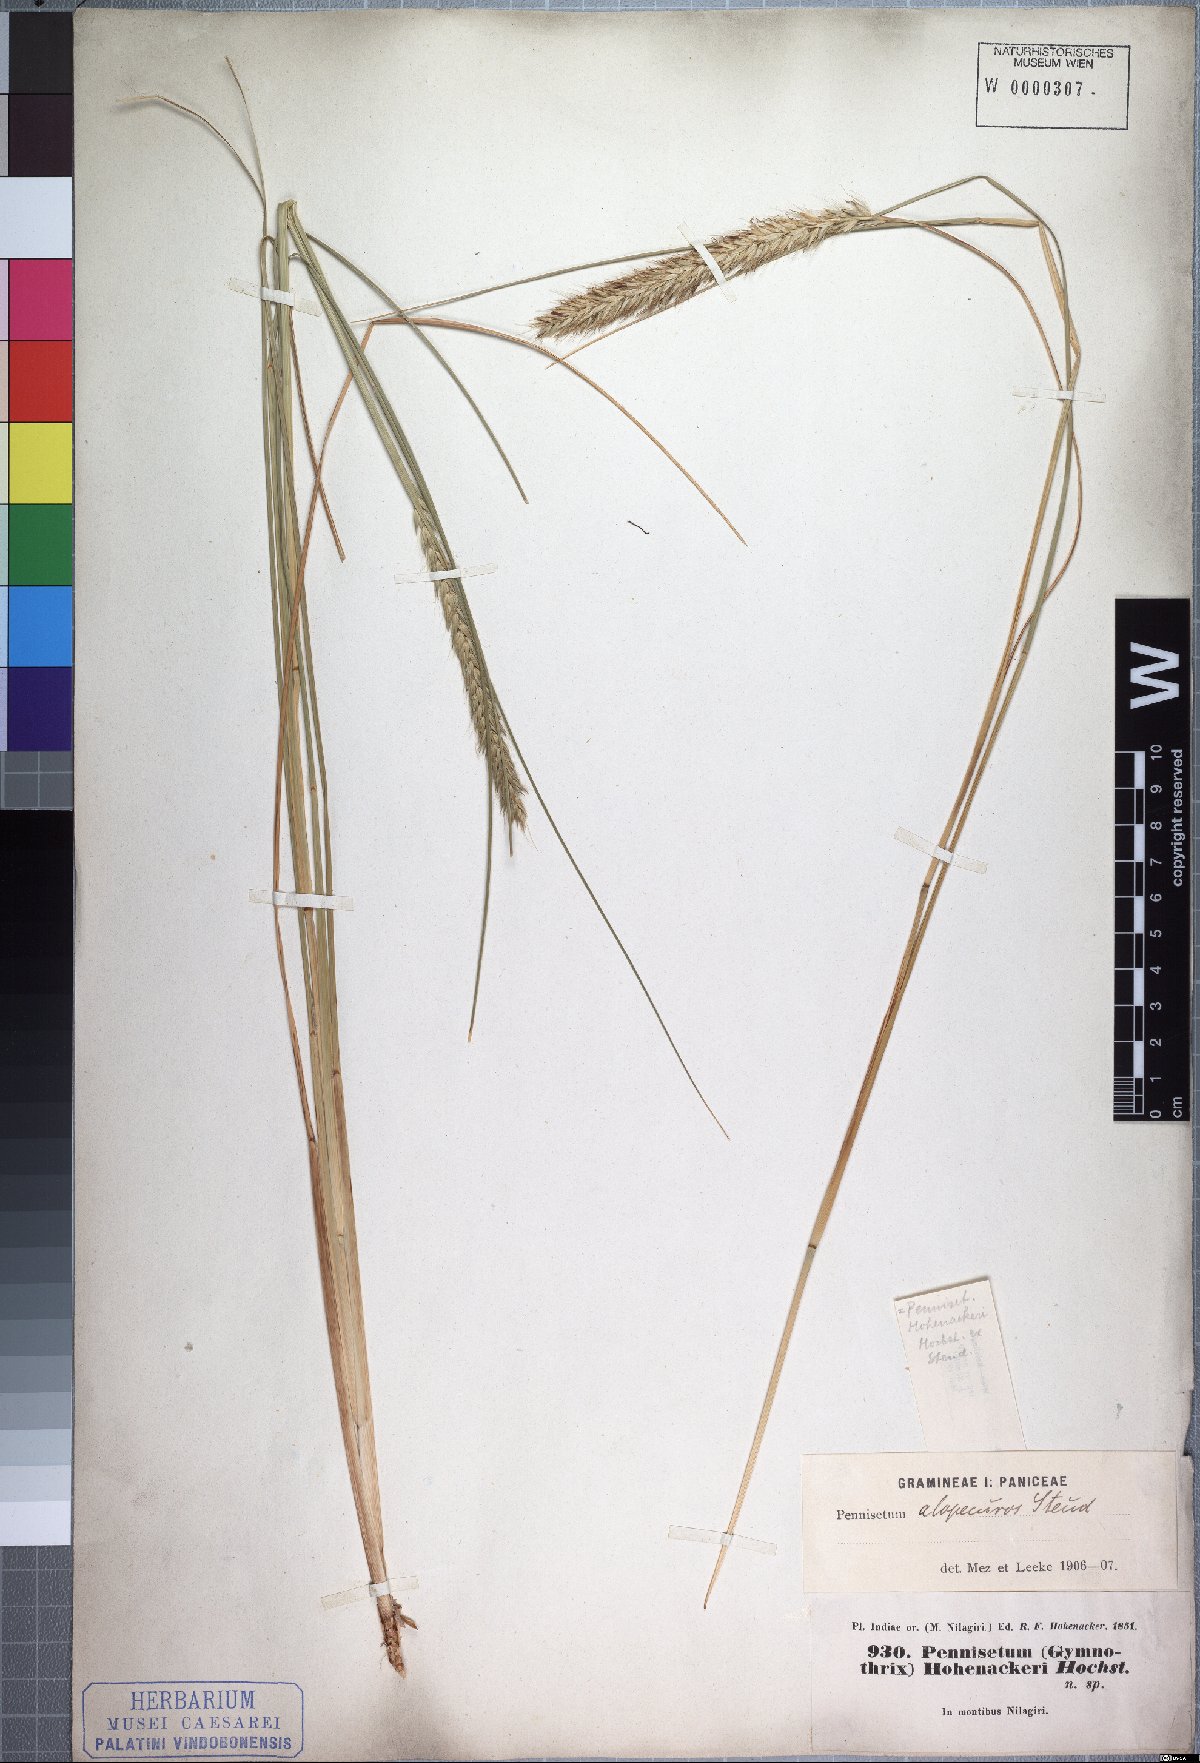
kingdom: Plantae
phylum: Tracheophyta
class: Liliopsida
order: Poales
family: Poaceae
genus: Cenchrus
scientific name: Cenchrus hohenackeri
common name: Moya grass
